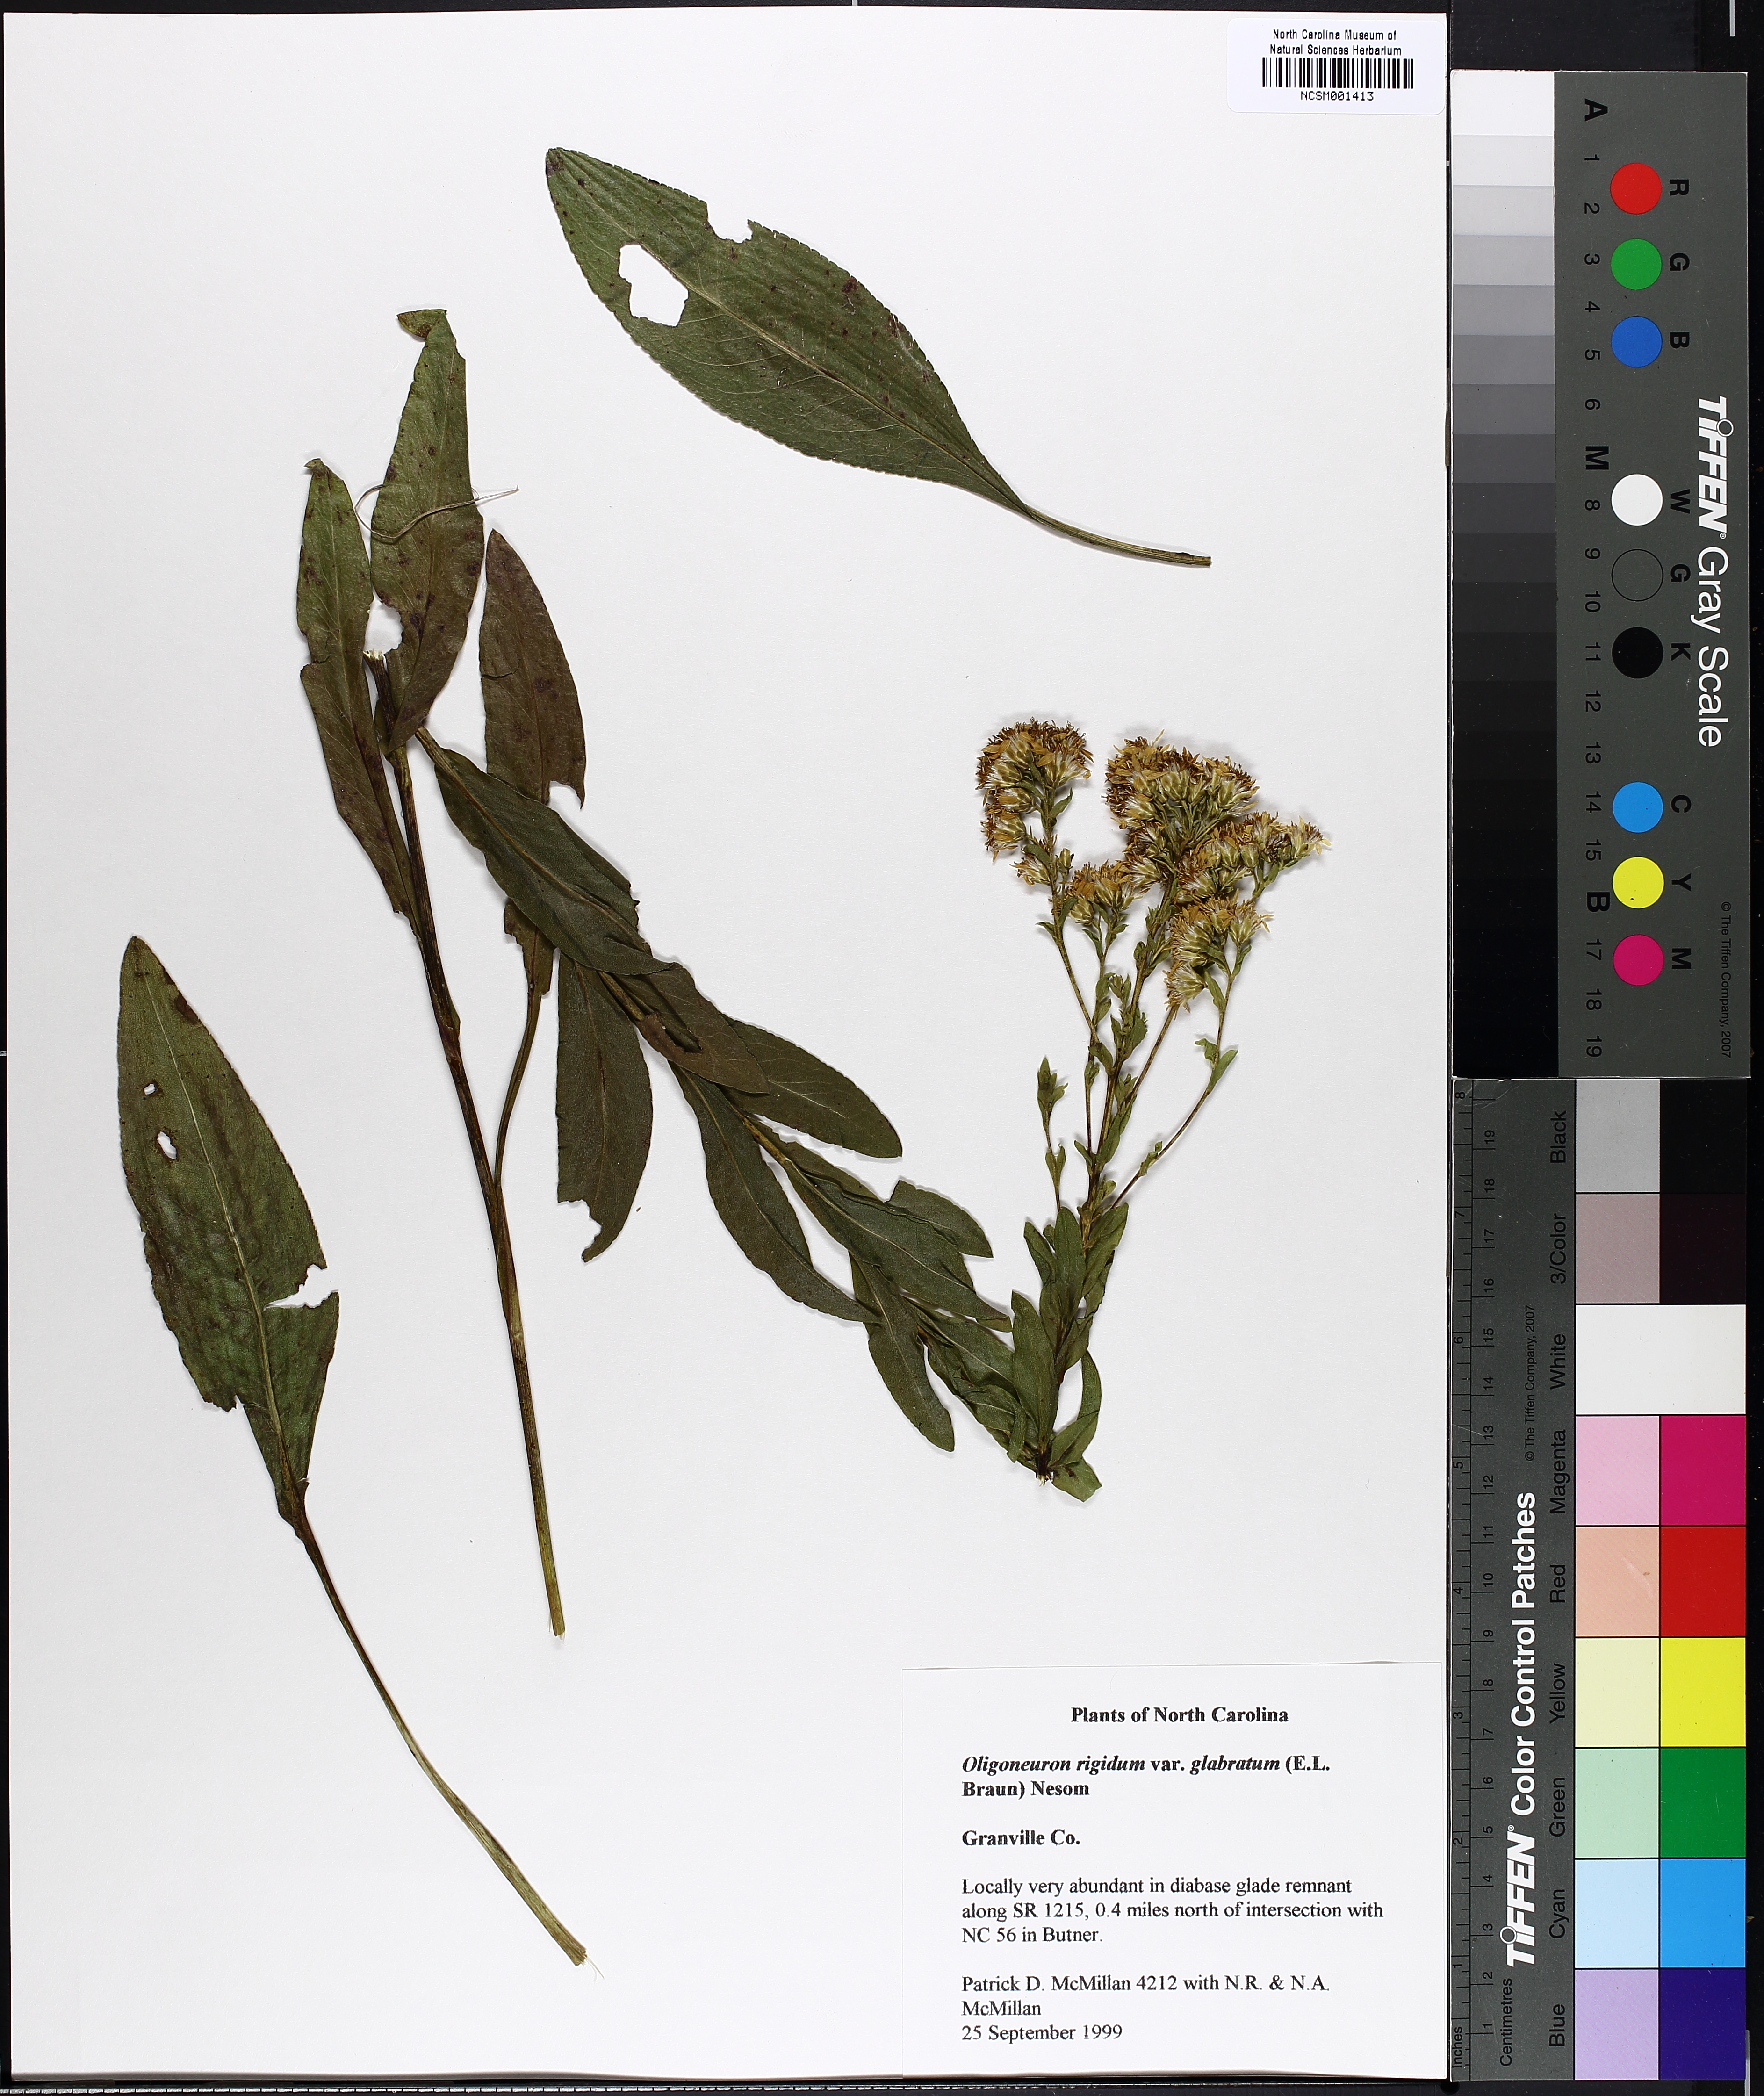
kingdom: Plantae
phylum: Tracheophyta
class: Magnoliopsida
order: Asterales
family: Asteraceae
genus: Solidago
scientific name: Solidago rigida
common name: Rigid goldenrod
